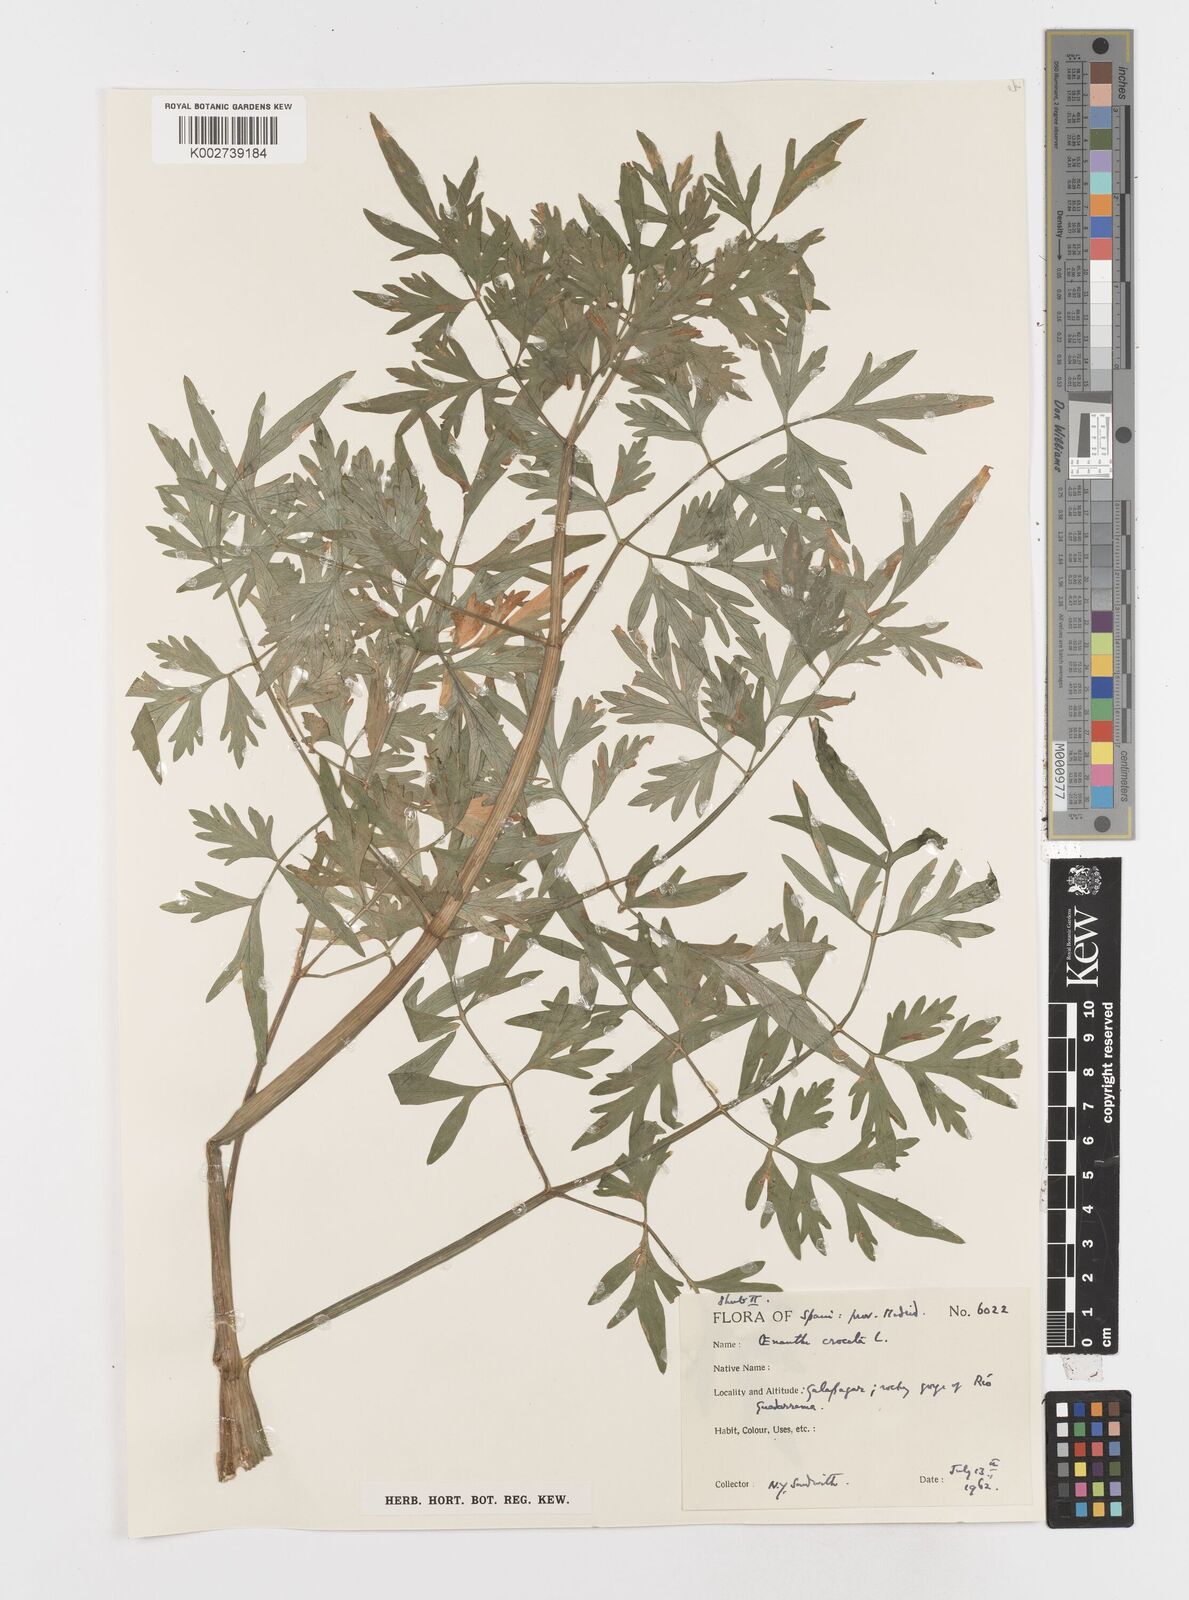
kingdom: Plantae
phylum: Tracheophyta
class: Magnoliopsida
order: Apiales
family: Apiaceae
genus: Oenanthe
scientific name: Oenanthe crocata
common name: Hemlock water-dropwort
